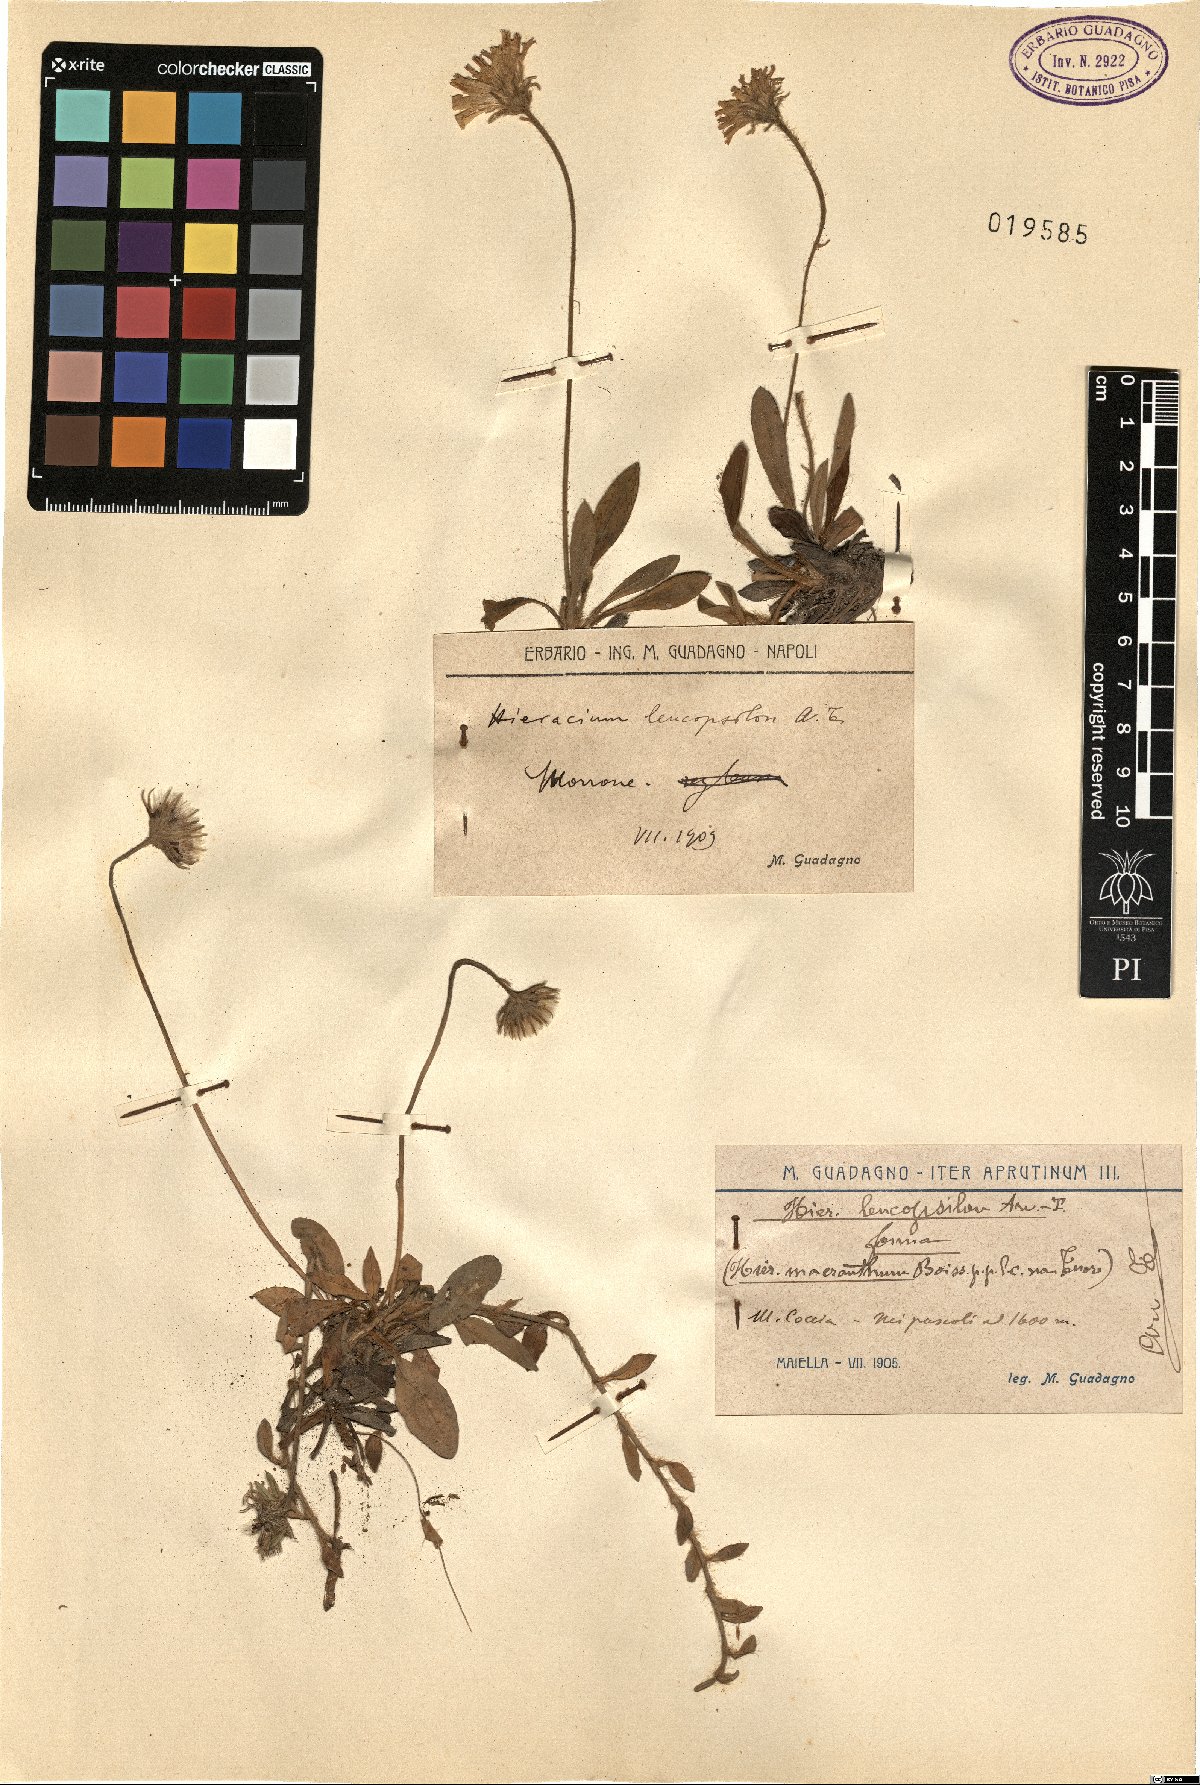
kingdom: Plantae
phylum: Tracheophyta
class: Magnoliopsida
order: Asterales
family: Asteraceae
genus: Pilosella
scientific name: Pilosella leucopsilon
